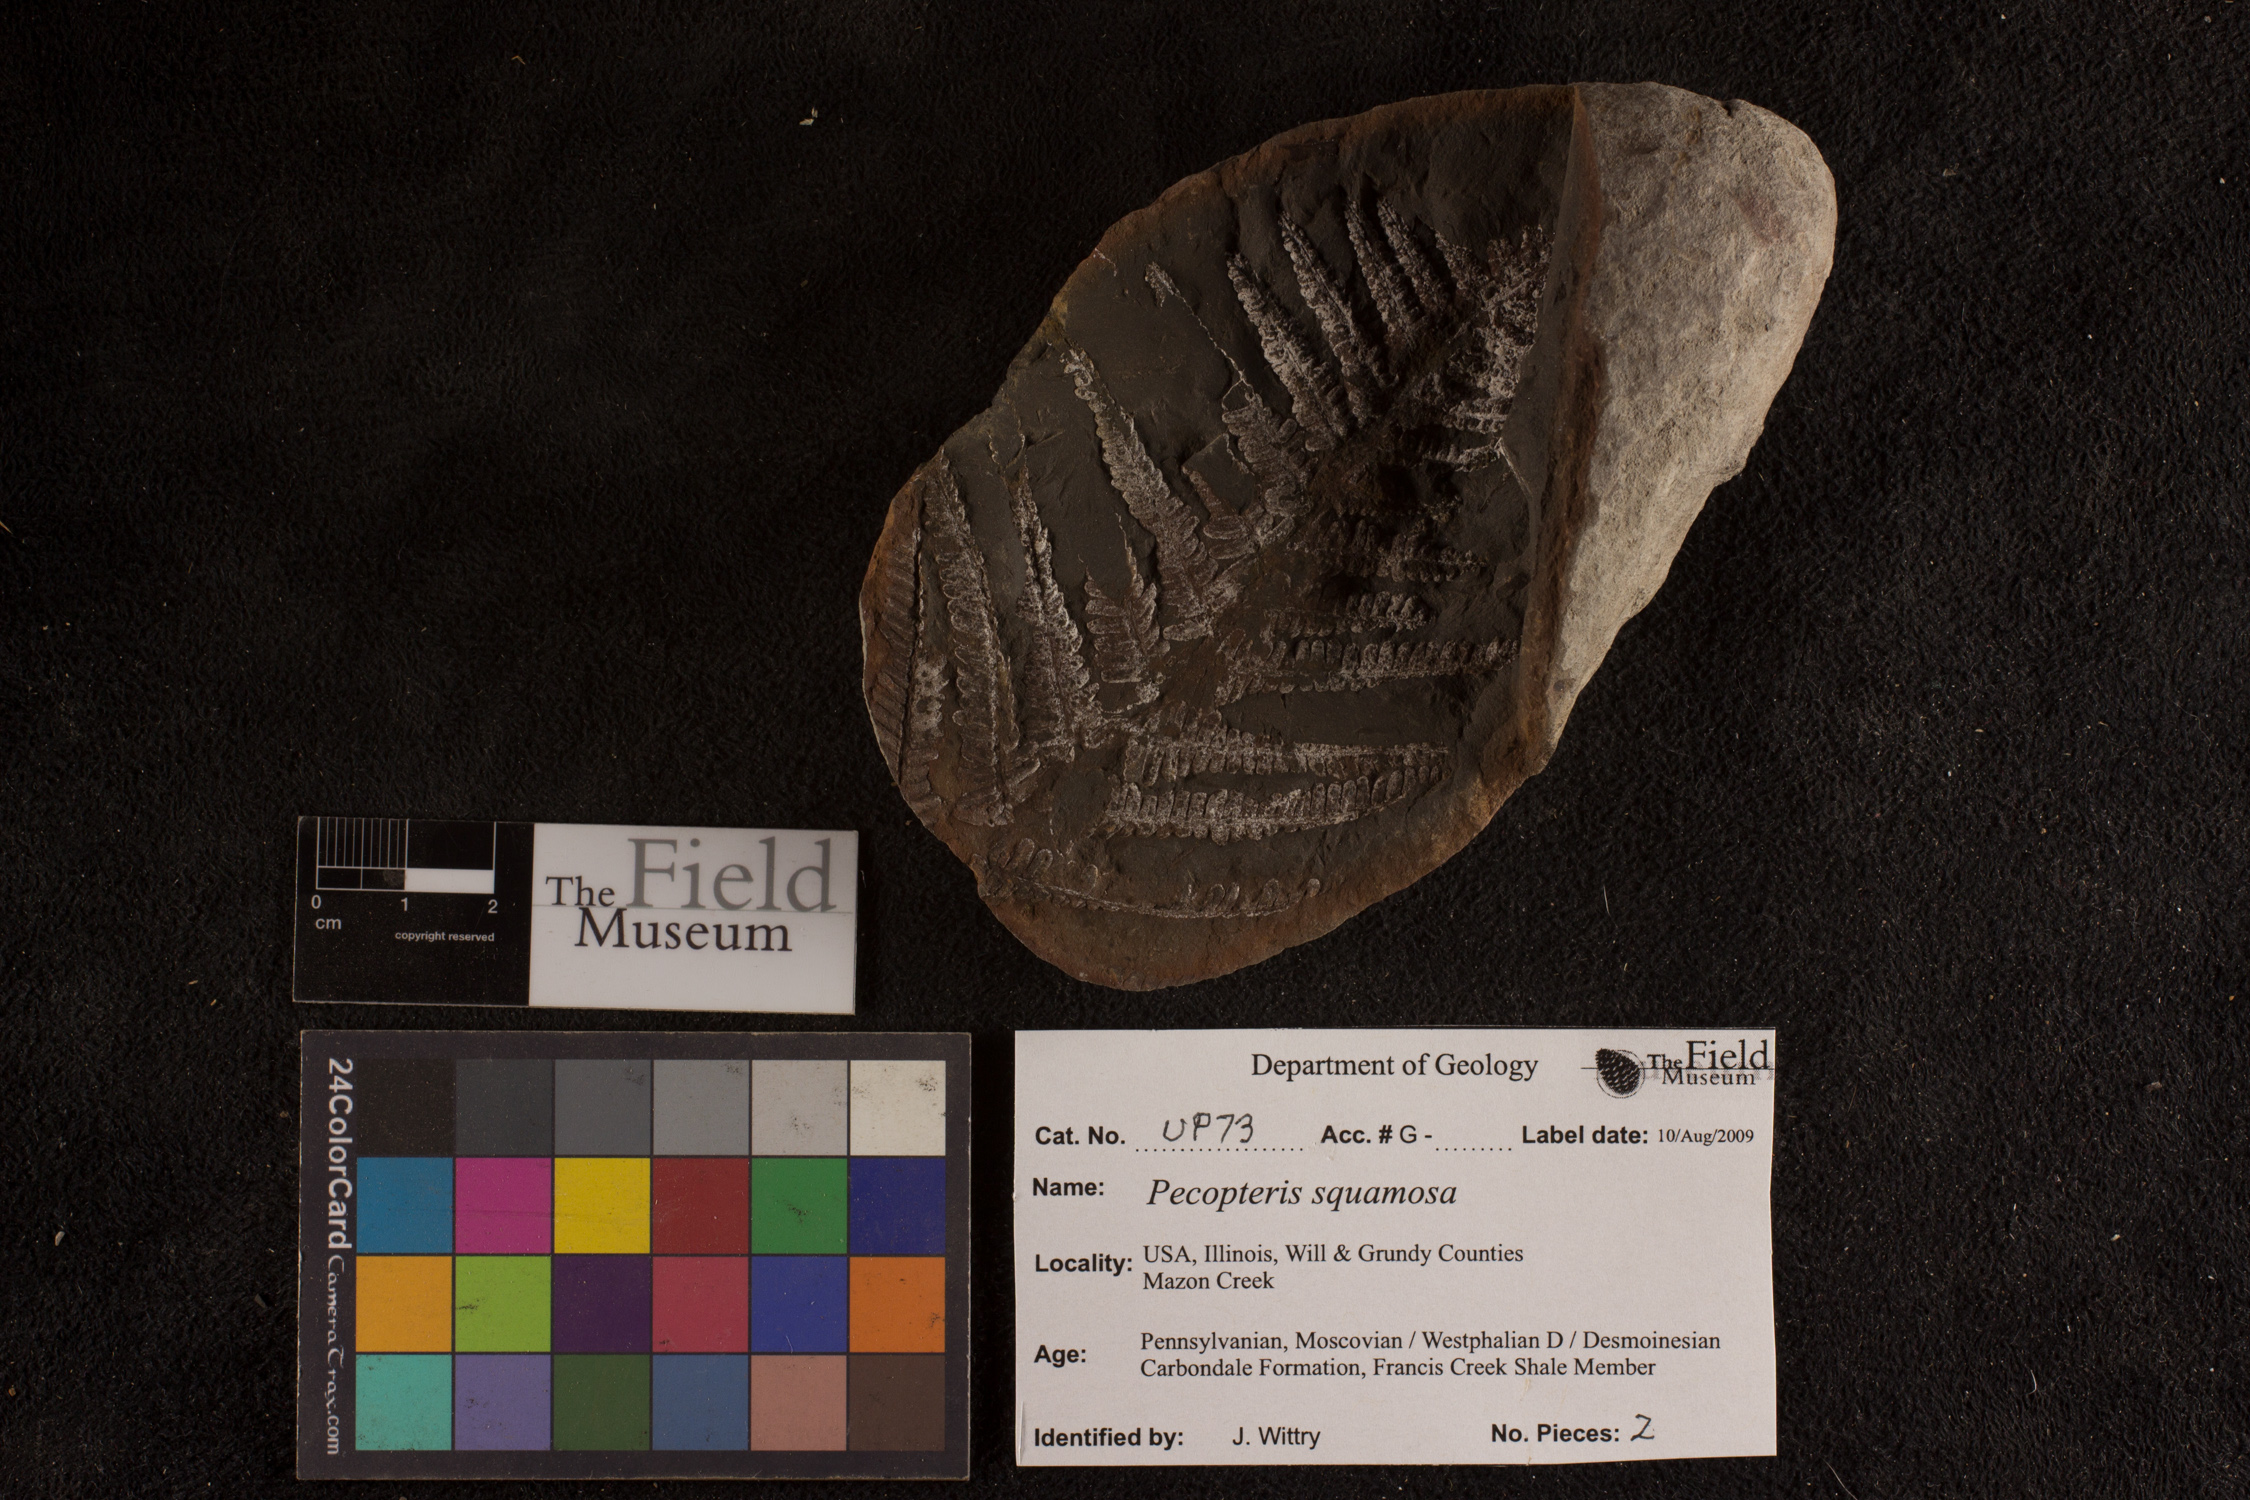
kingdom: Plantae
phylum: Tracheophyta
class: Polypodiopsida
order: Marattiales
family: Asterothecaceae
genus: Pecopteris
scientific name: Pecopteris
